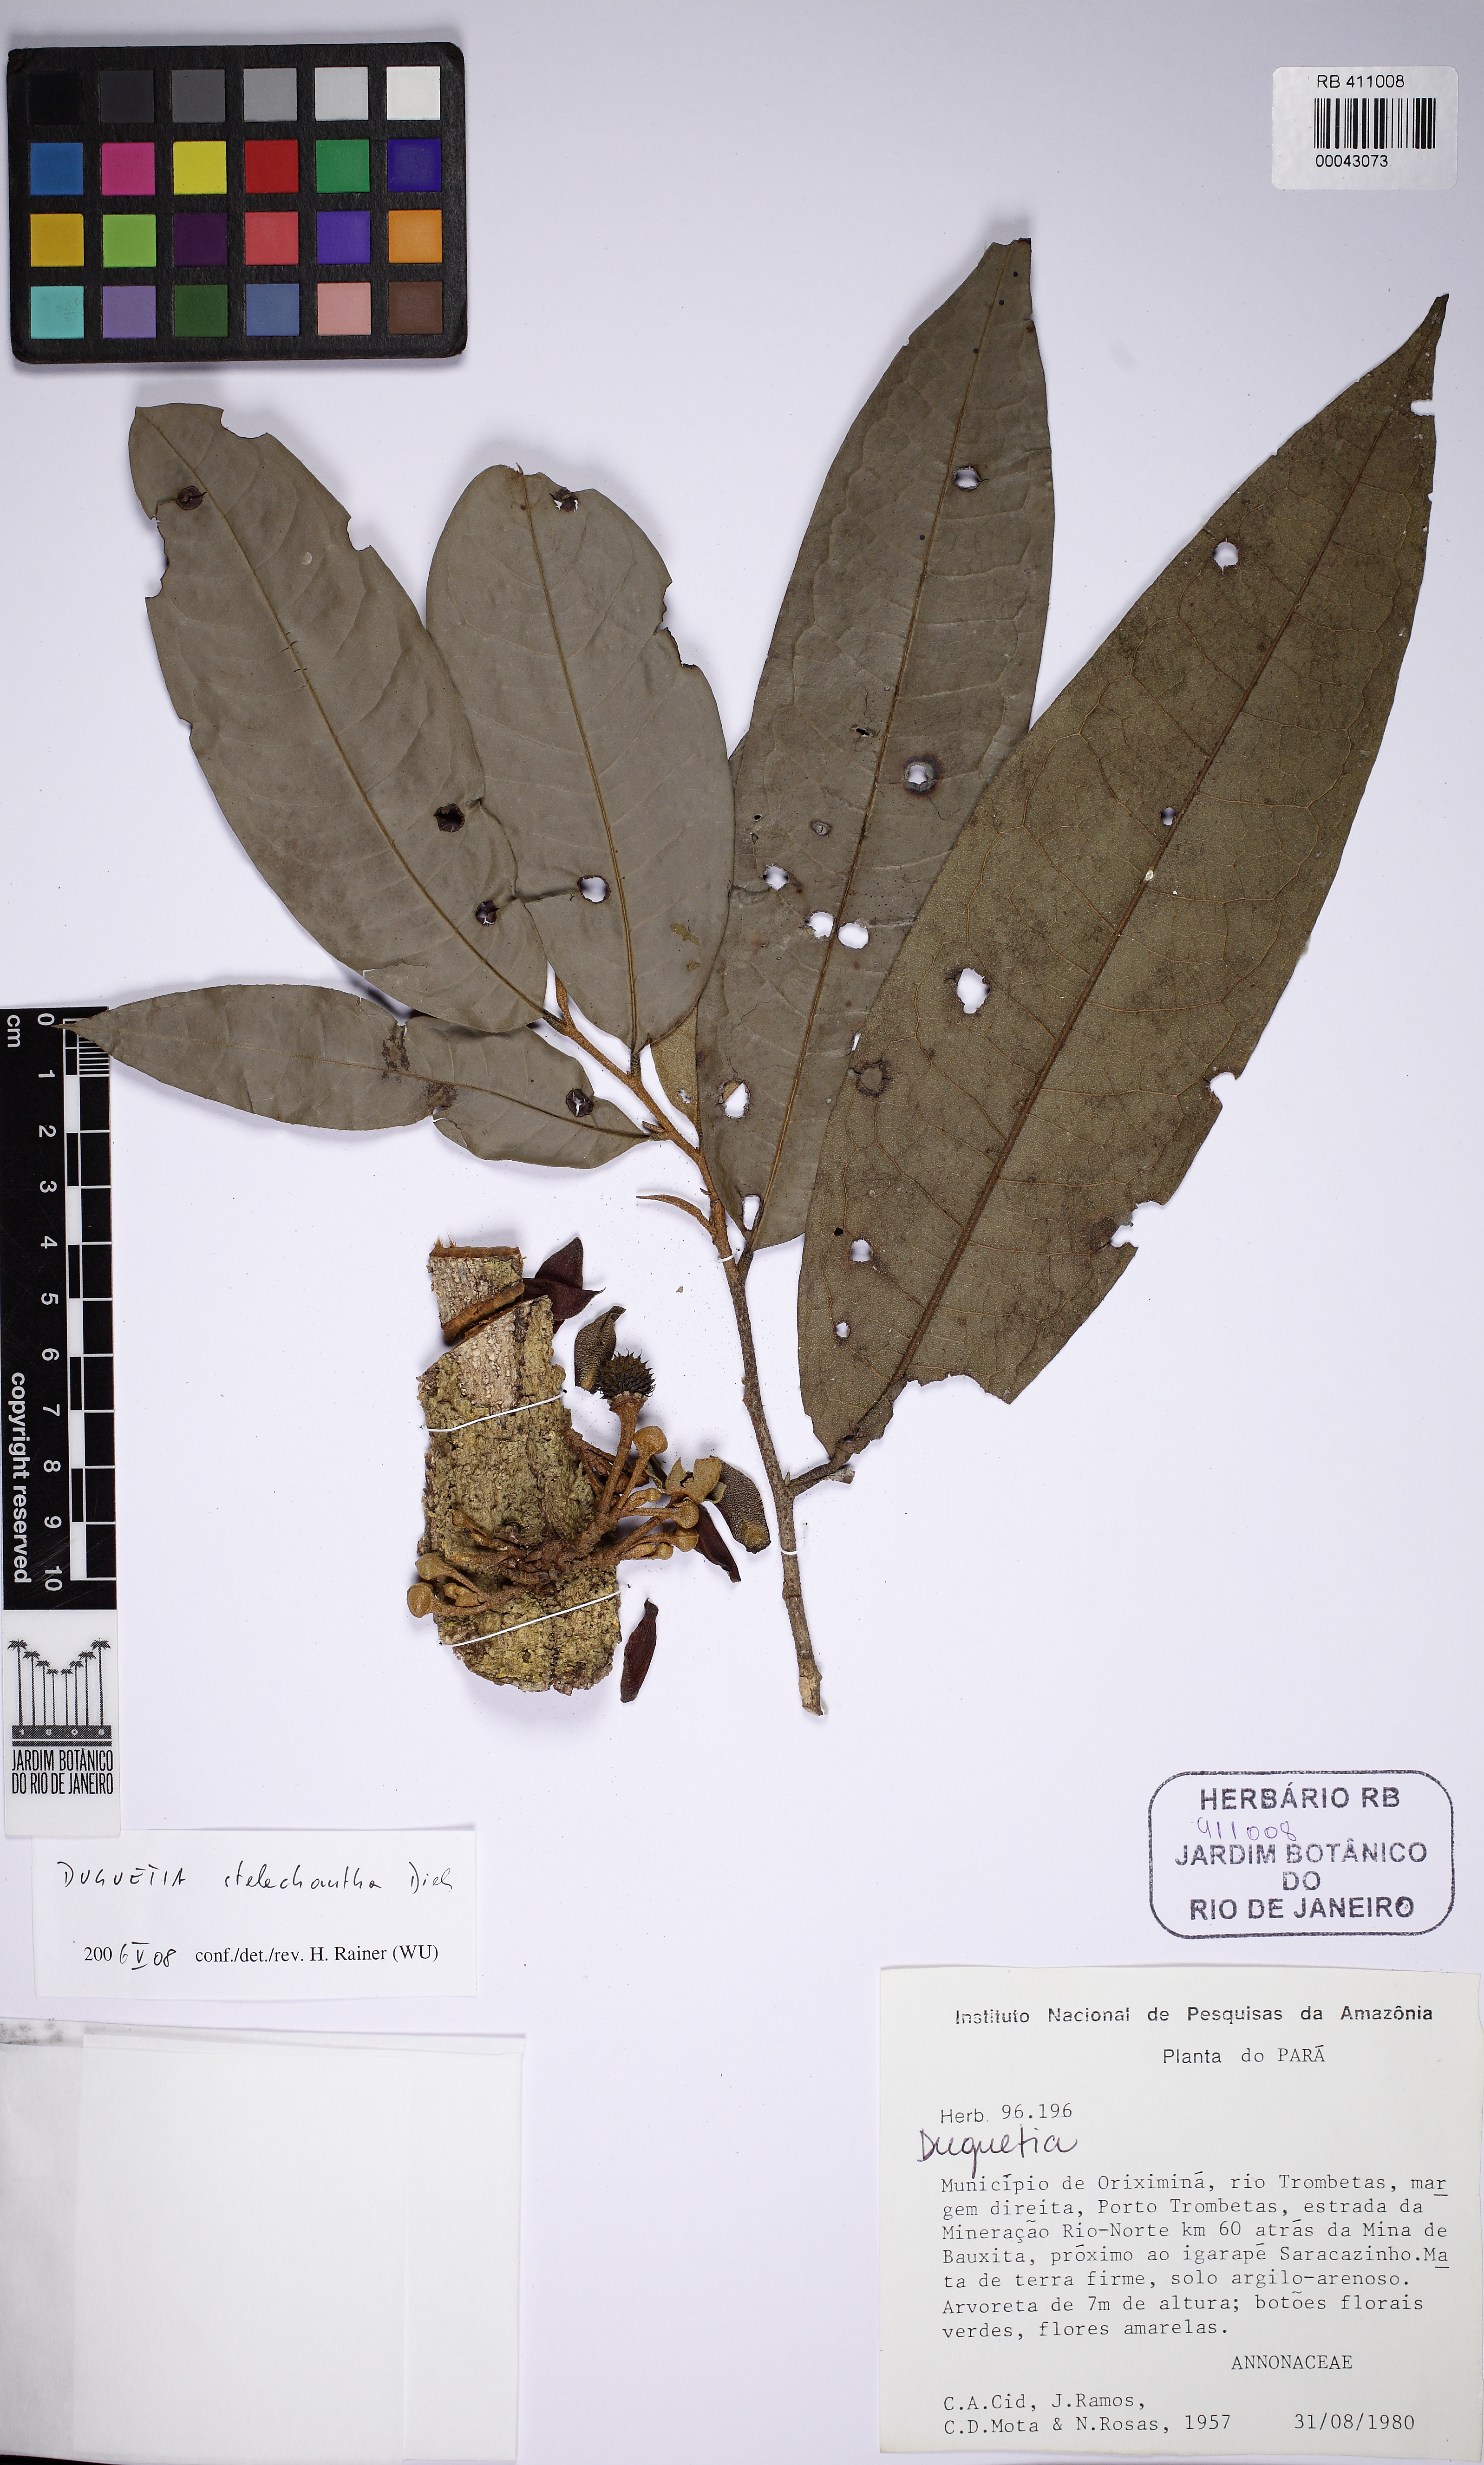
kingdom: Plantae
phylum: Tracheophyta
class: Magnoliopsida
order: Magnoliales
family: Annonaceae
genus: Duguetia
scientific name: Duguetia stelechantha
